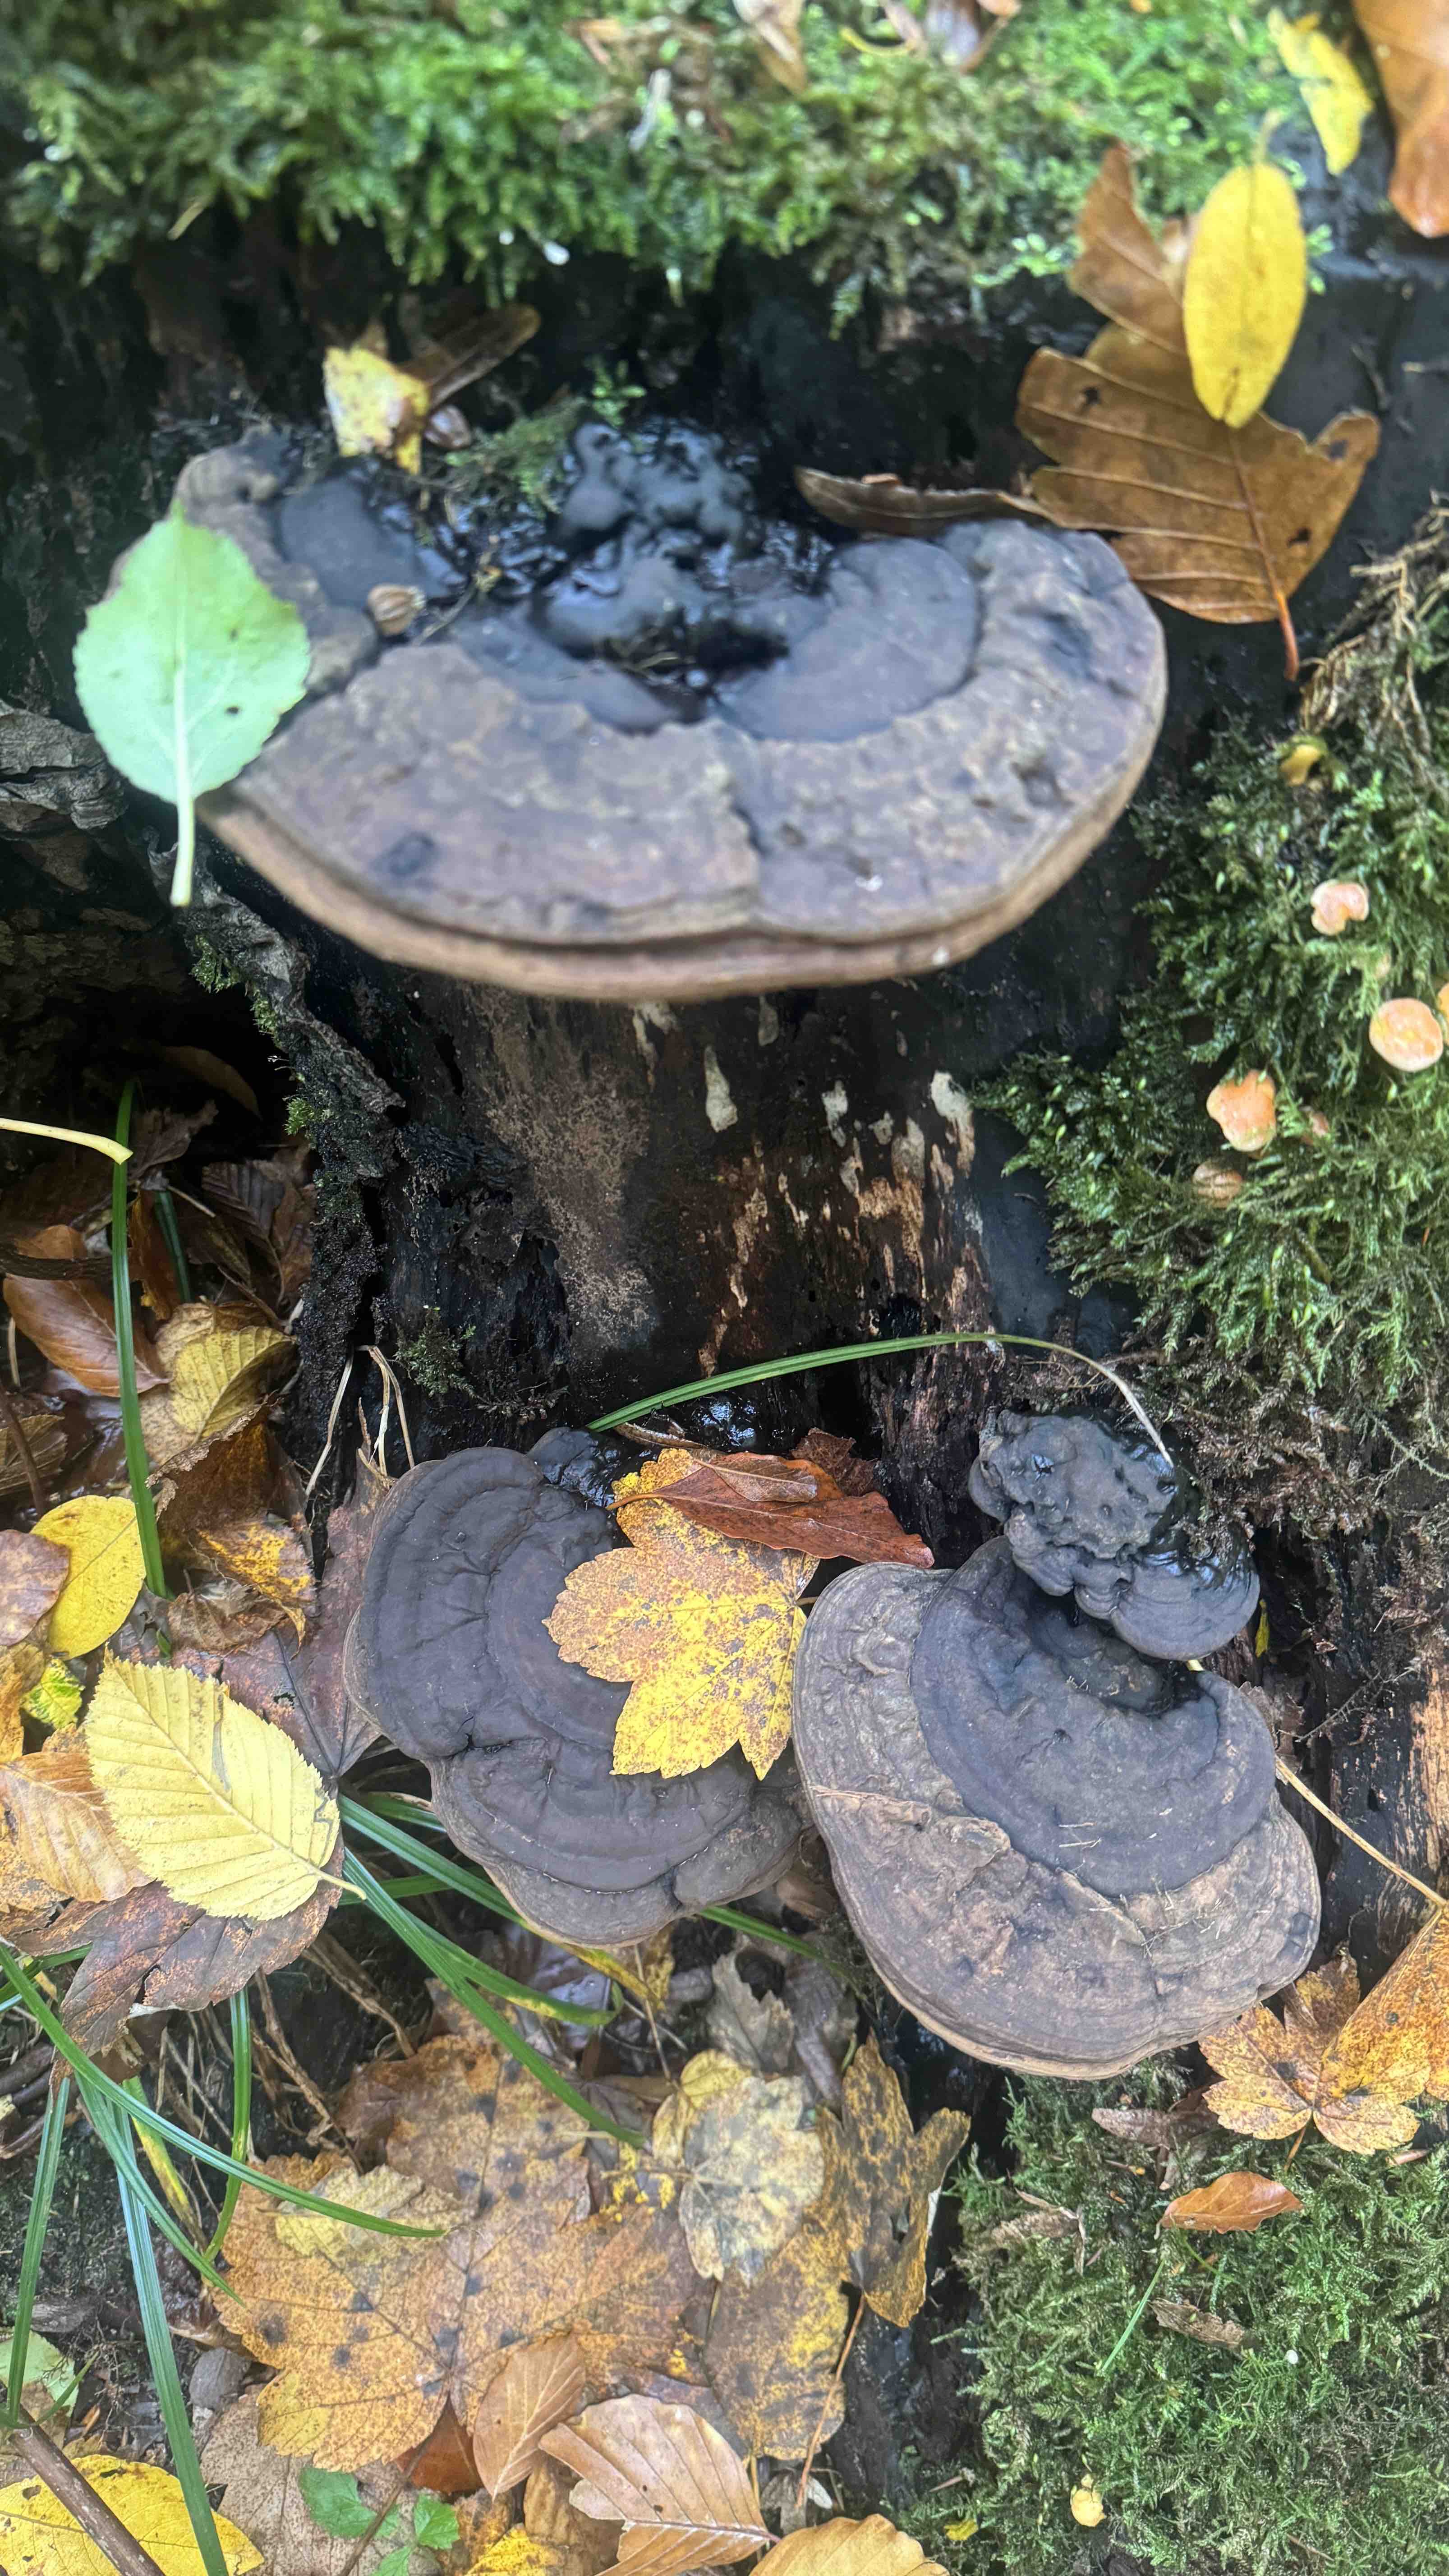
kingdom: Fungi
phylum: Basidiomycota
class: Agaricomycetes
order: Polyporales
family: Polyporaceae
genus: Ganoderma
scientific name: Ganoderma applanatum
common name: flad lakporesvamp
